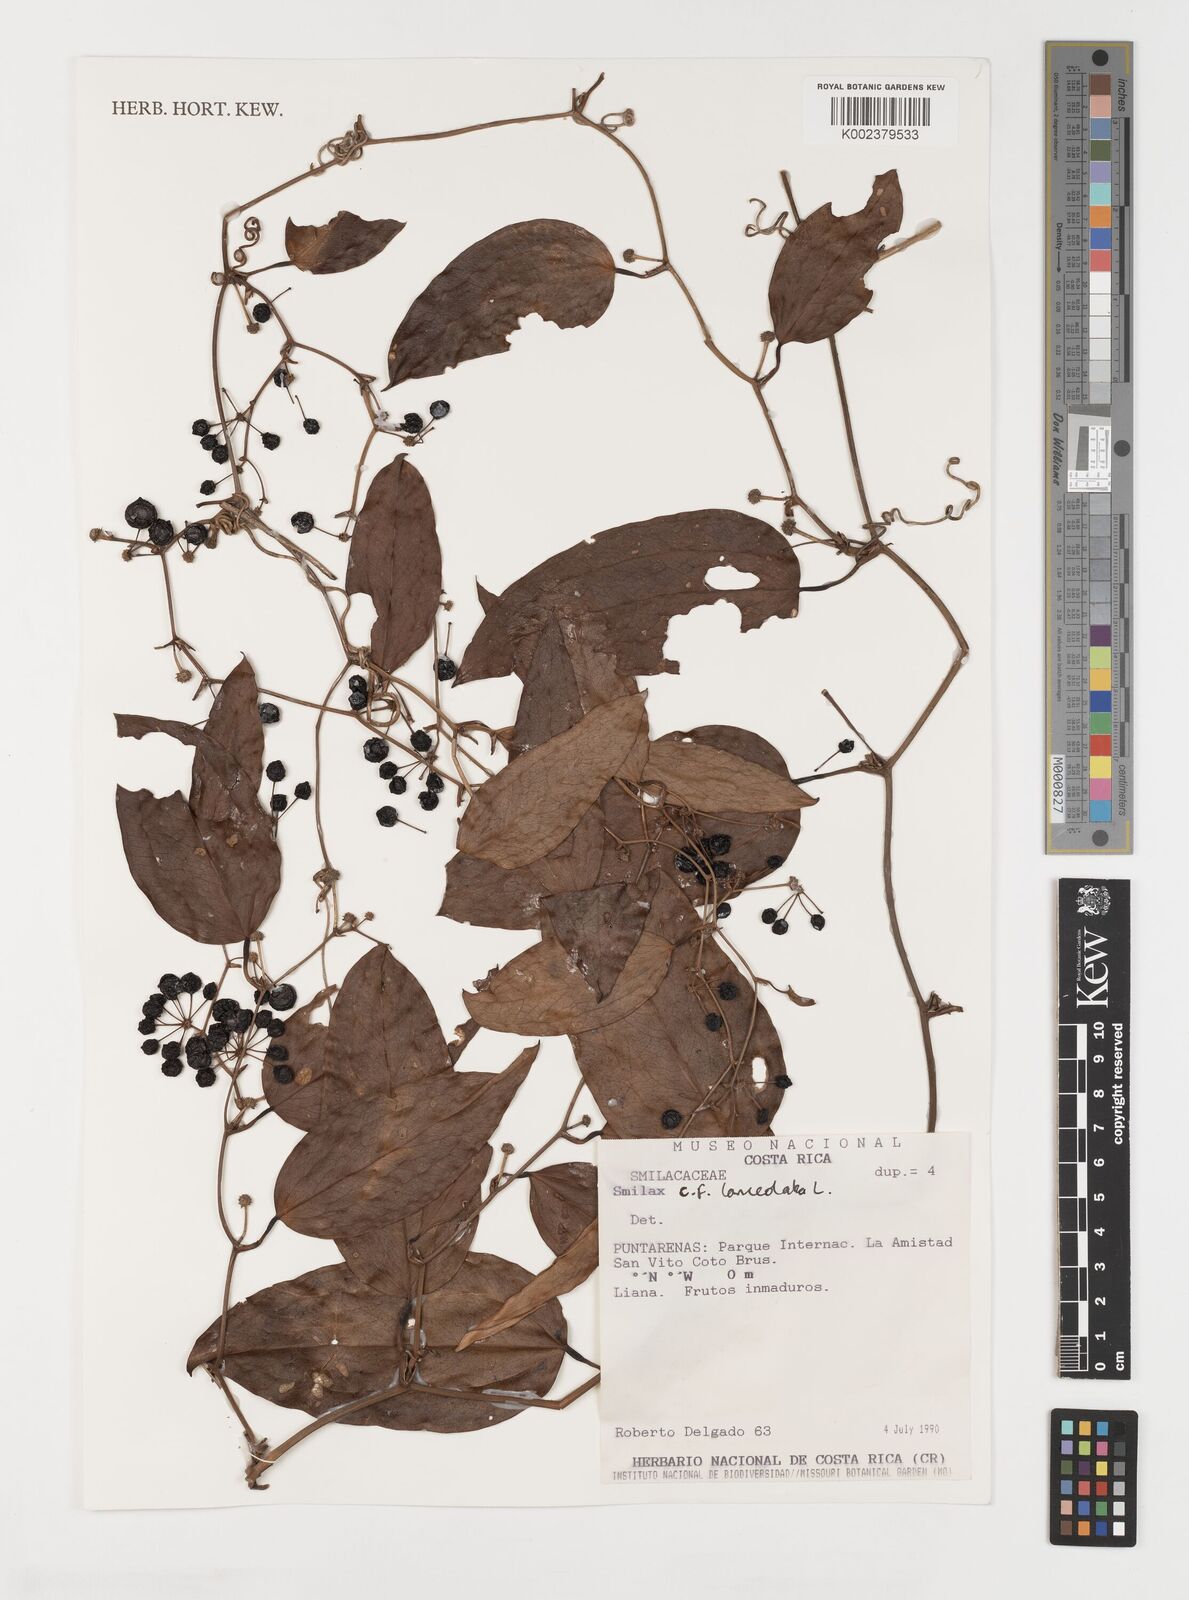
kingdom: Plantae
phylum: Tracheophyta
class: Liliopsida
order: Liliales
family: Smilacaceae
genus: Smilax
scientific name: Smilax laurifolia
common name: Bamboovine
